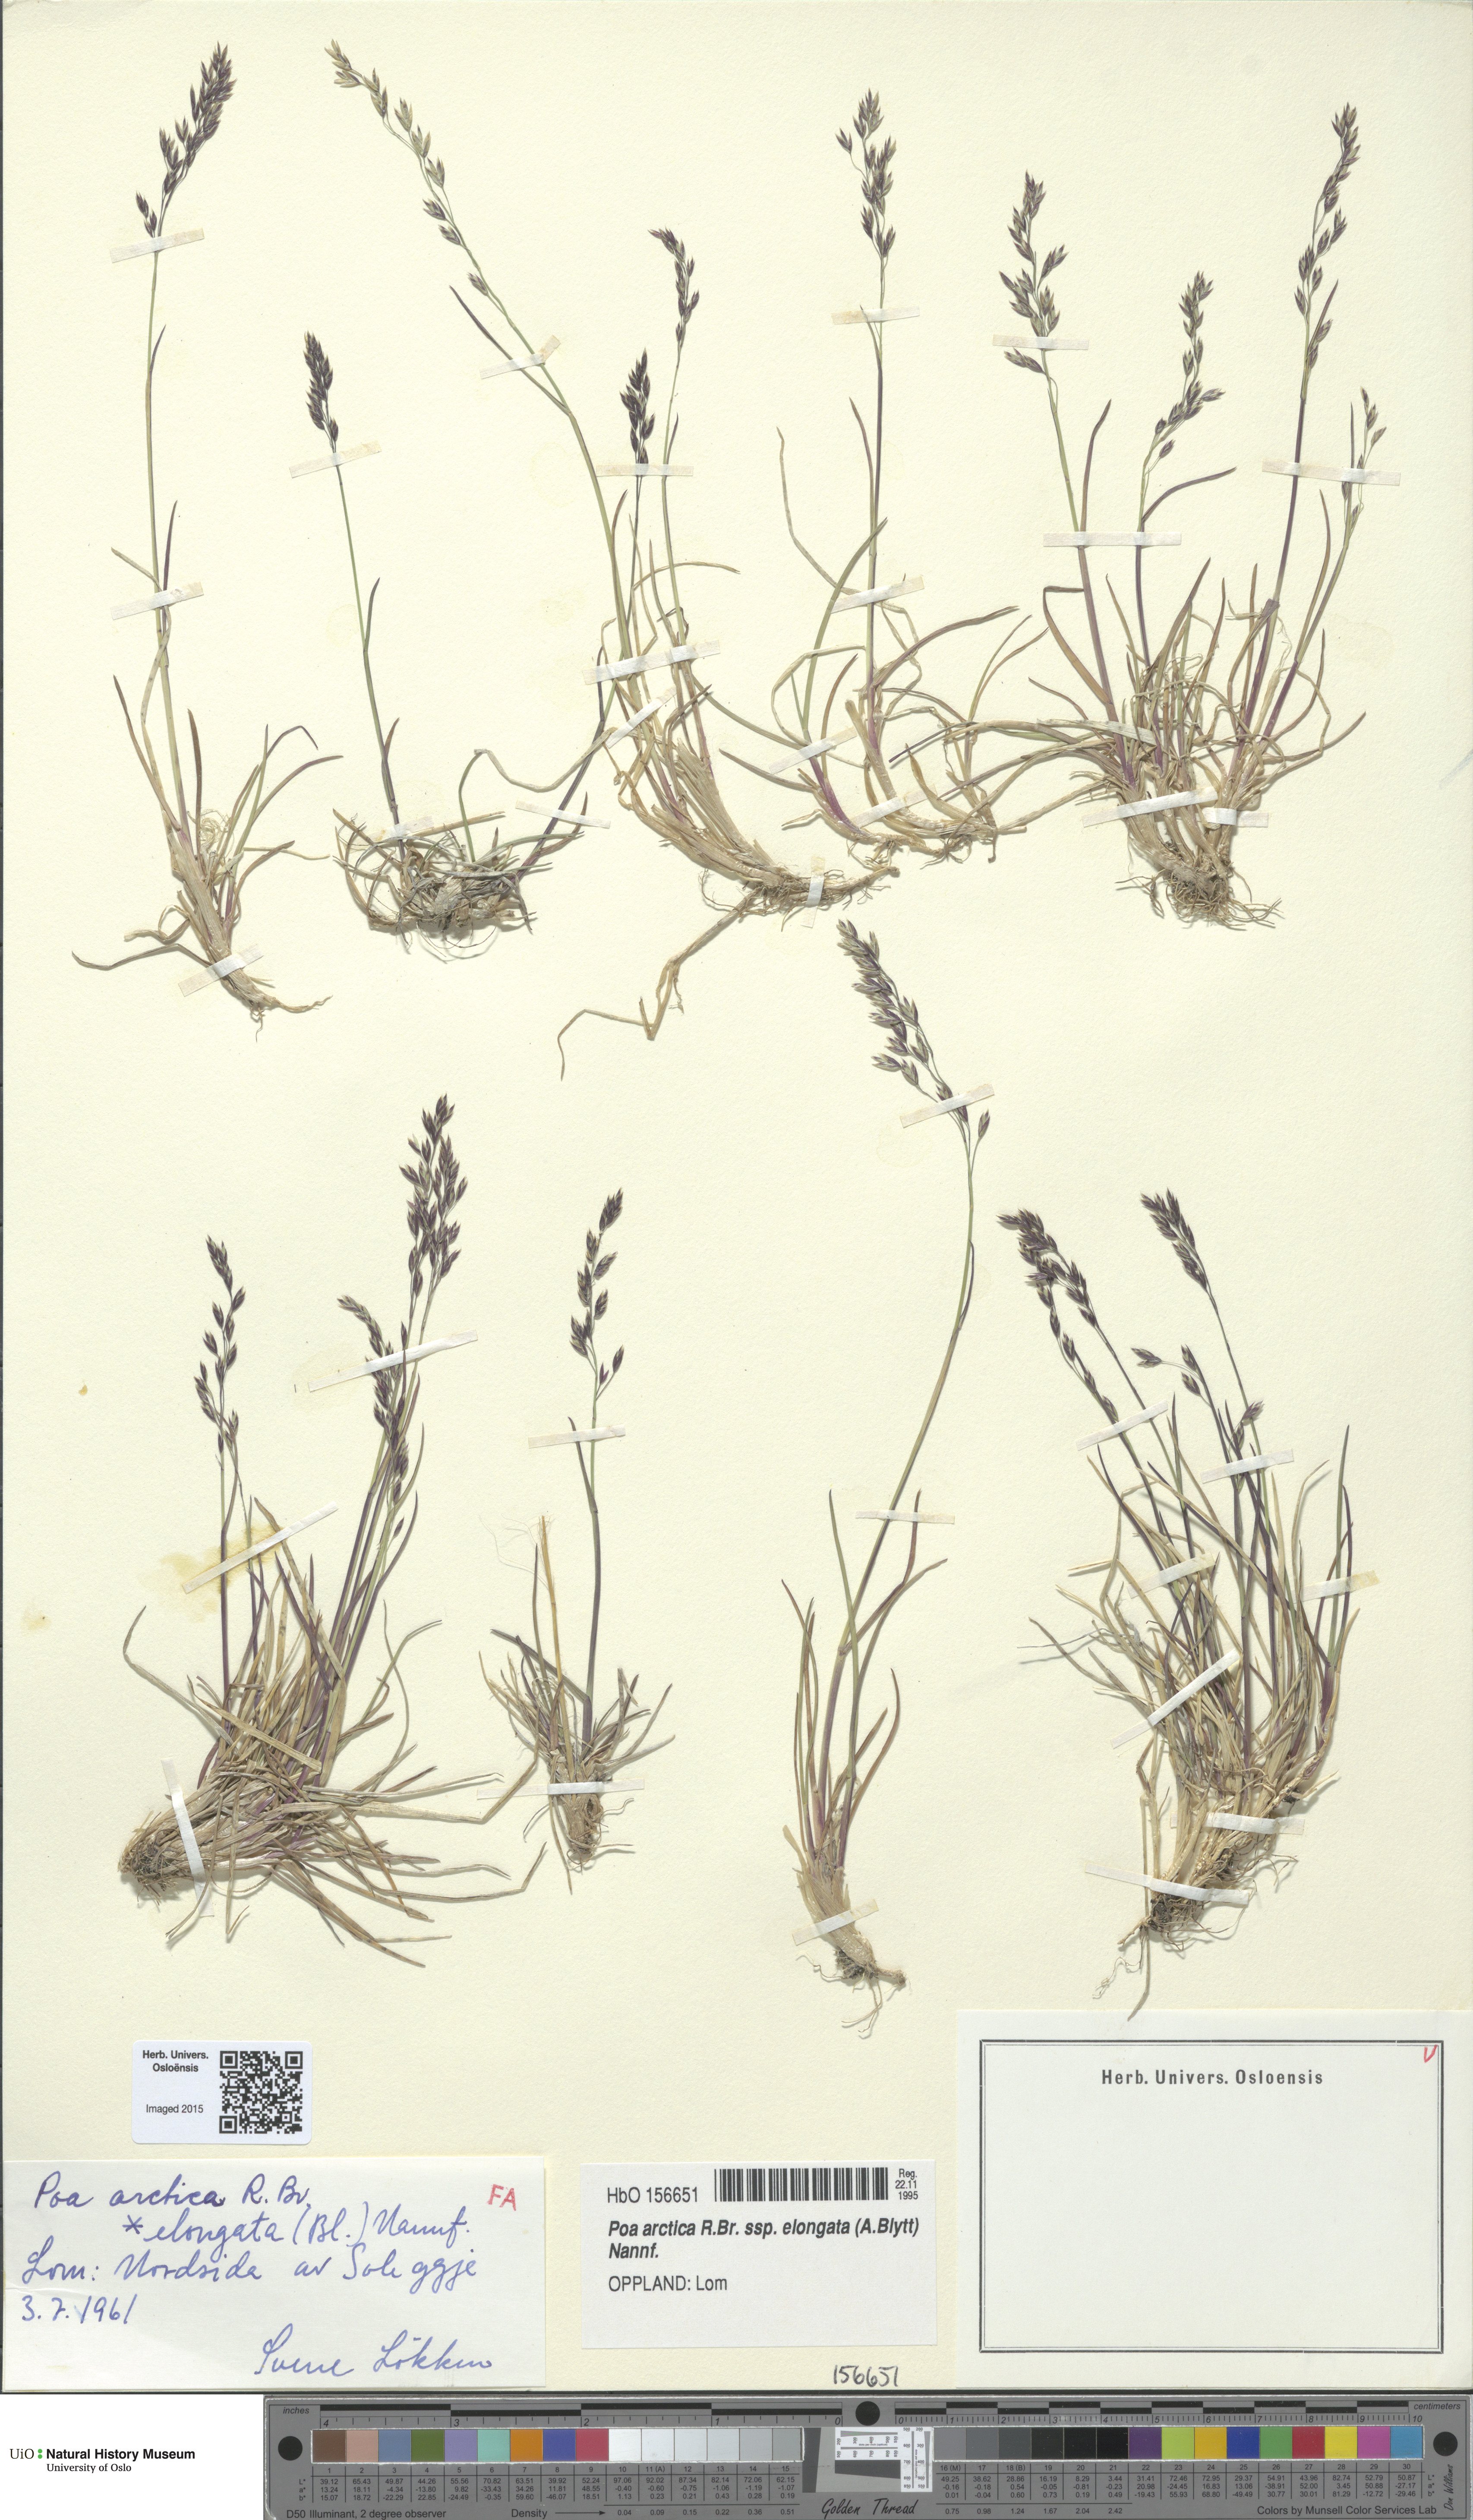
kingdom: Plantae
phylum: Tracheophyta
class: Liliopsida
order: Poales
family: Poaceae
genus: Poa
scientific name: Poa arctica
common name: Arctic bluegrass
